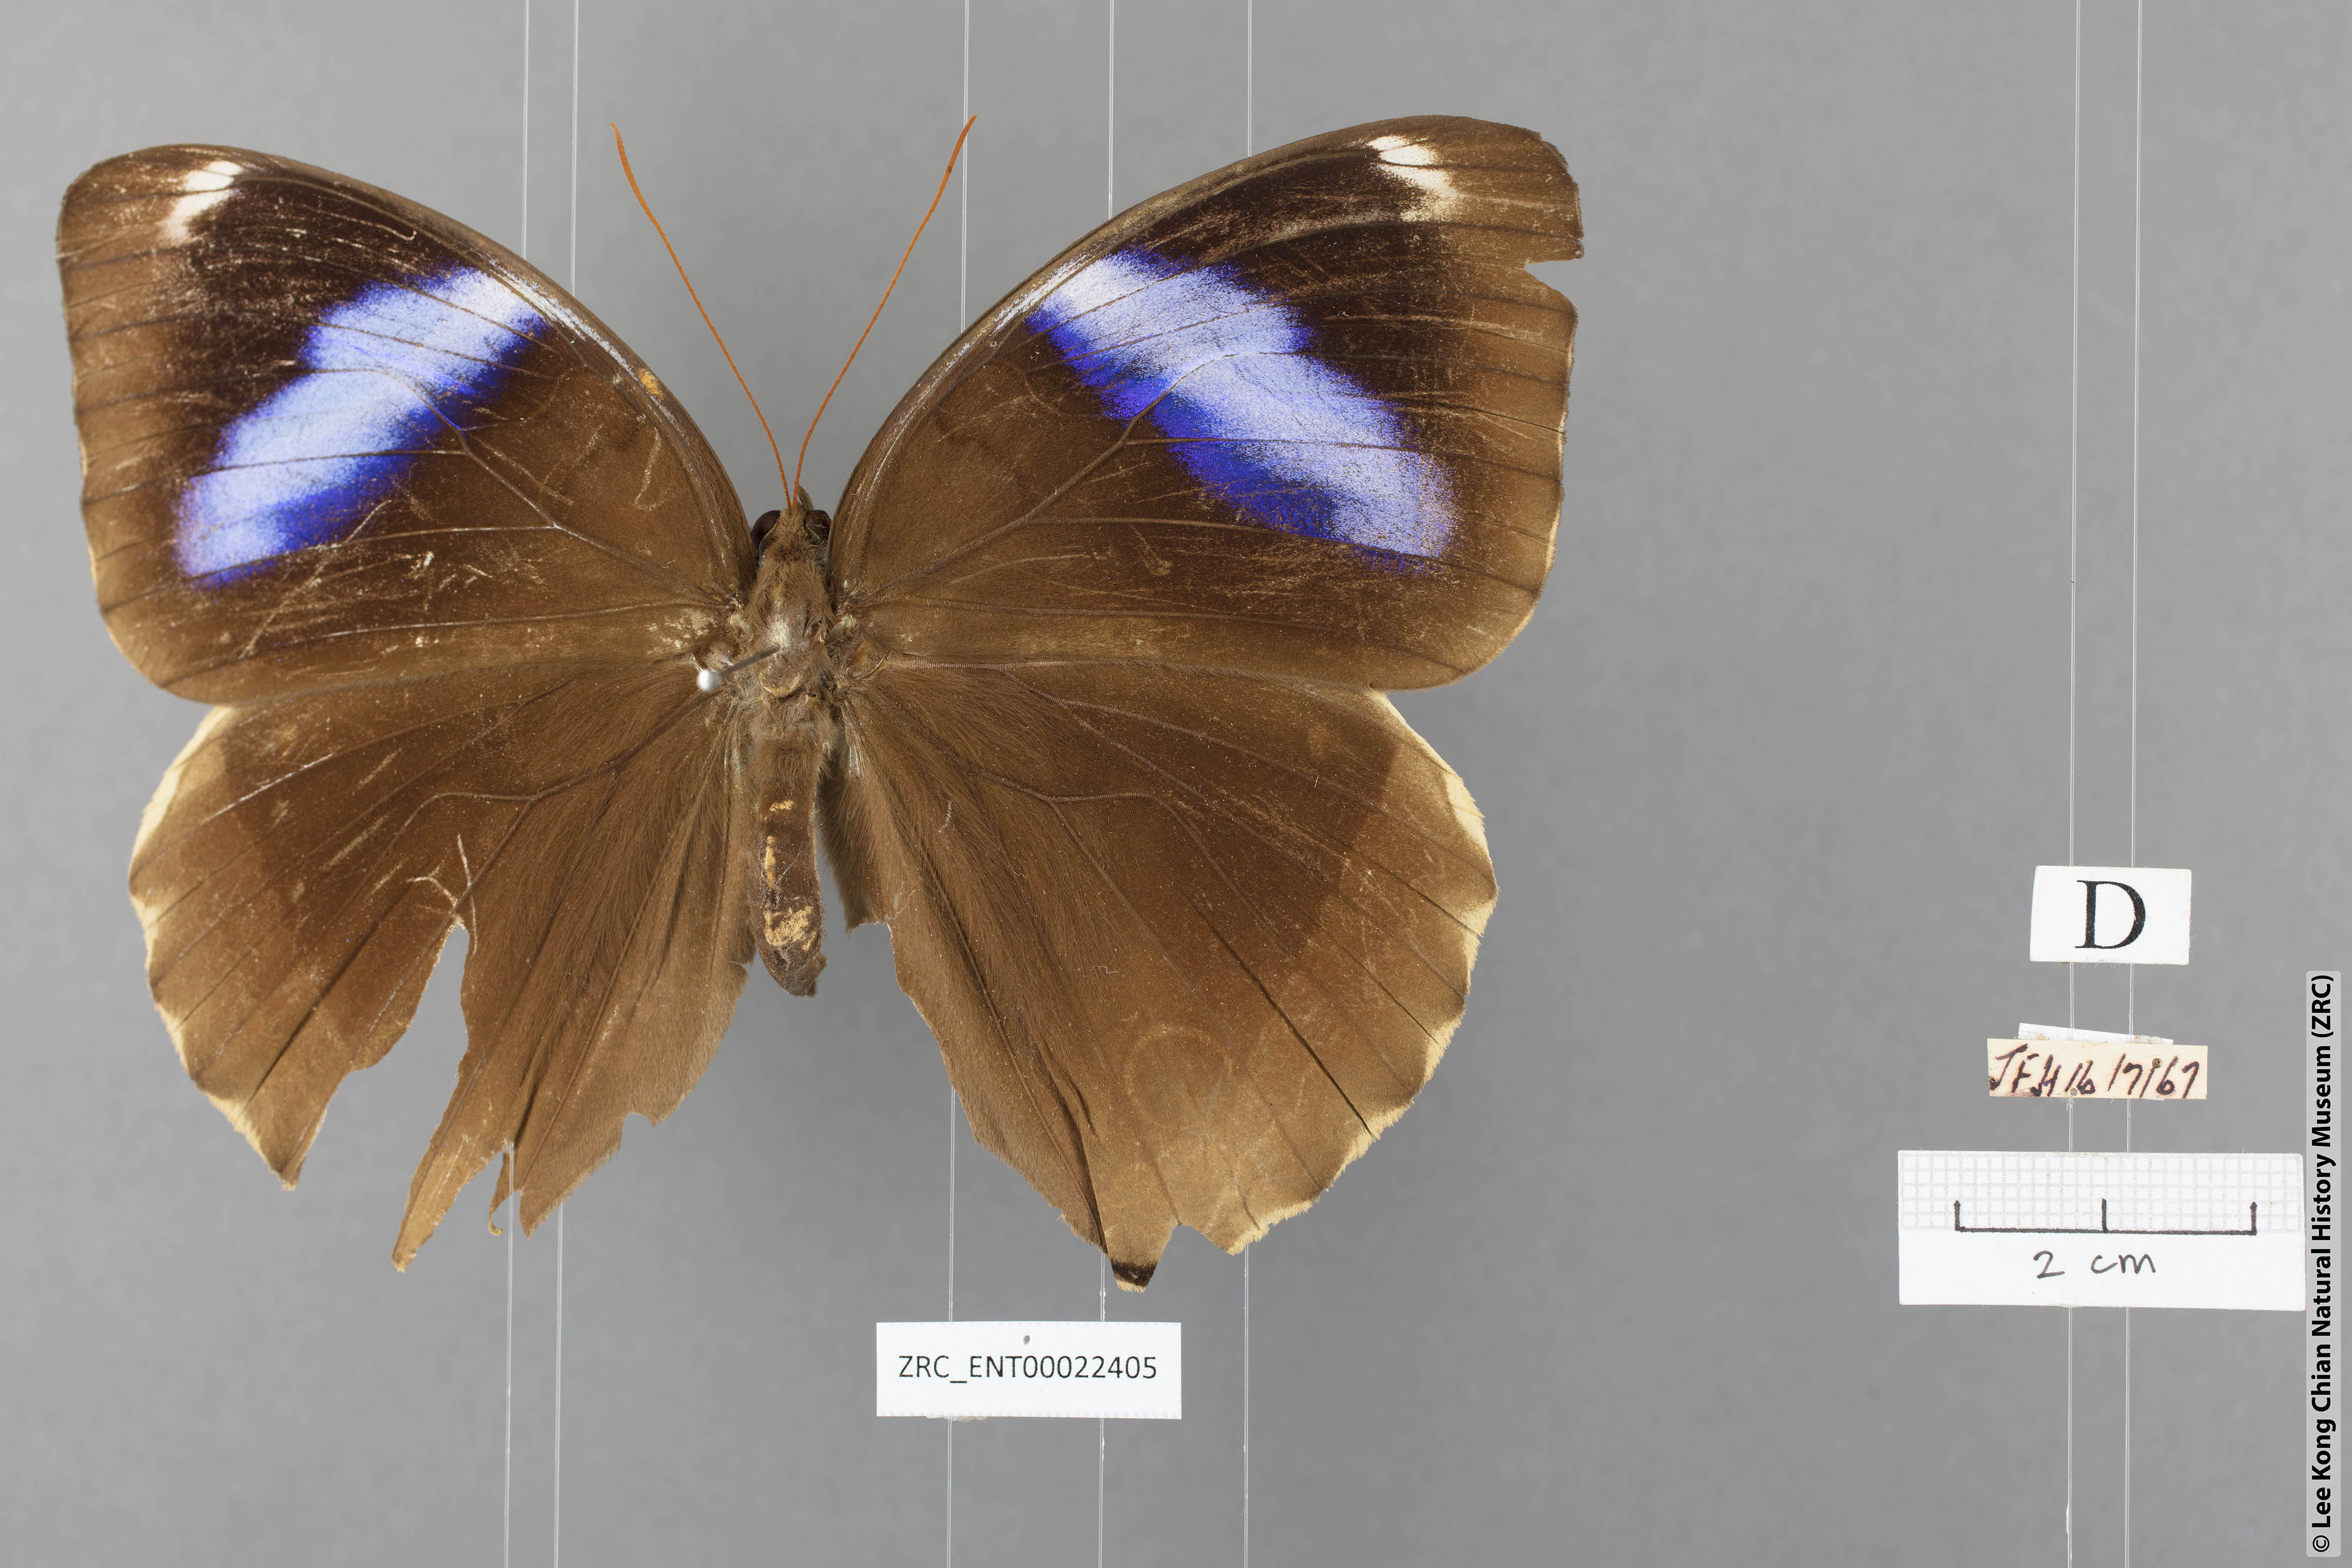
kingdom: Animalia
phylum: Arthropoda
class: Insecta
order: Lepidoptera
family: Nymphalidae
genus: Thaumantis
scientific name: Thaumantis odana
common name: Malayan jungle glory
